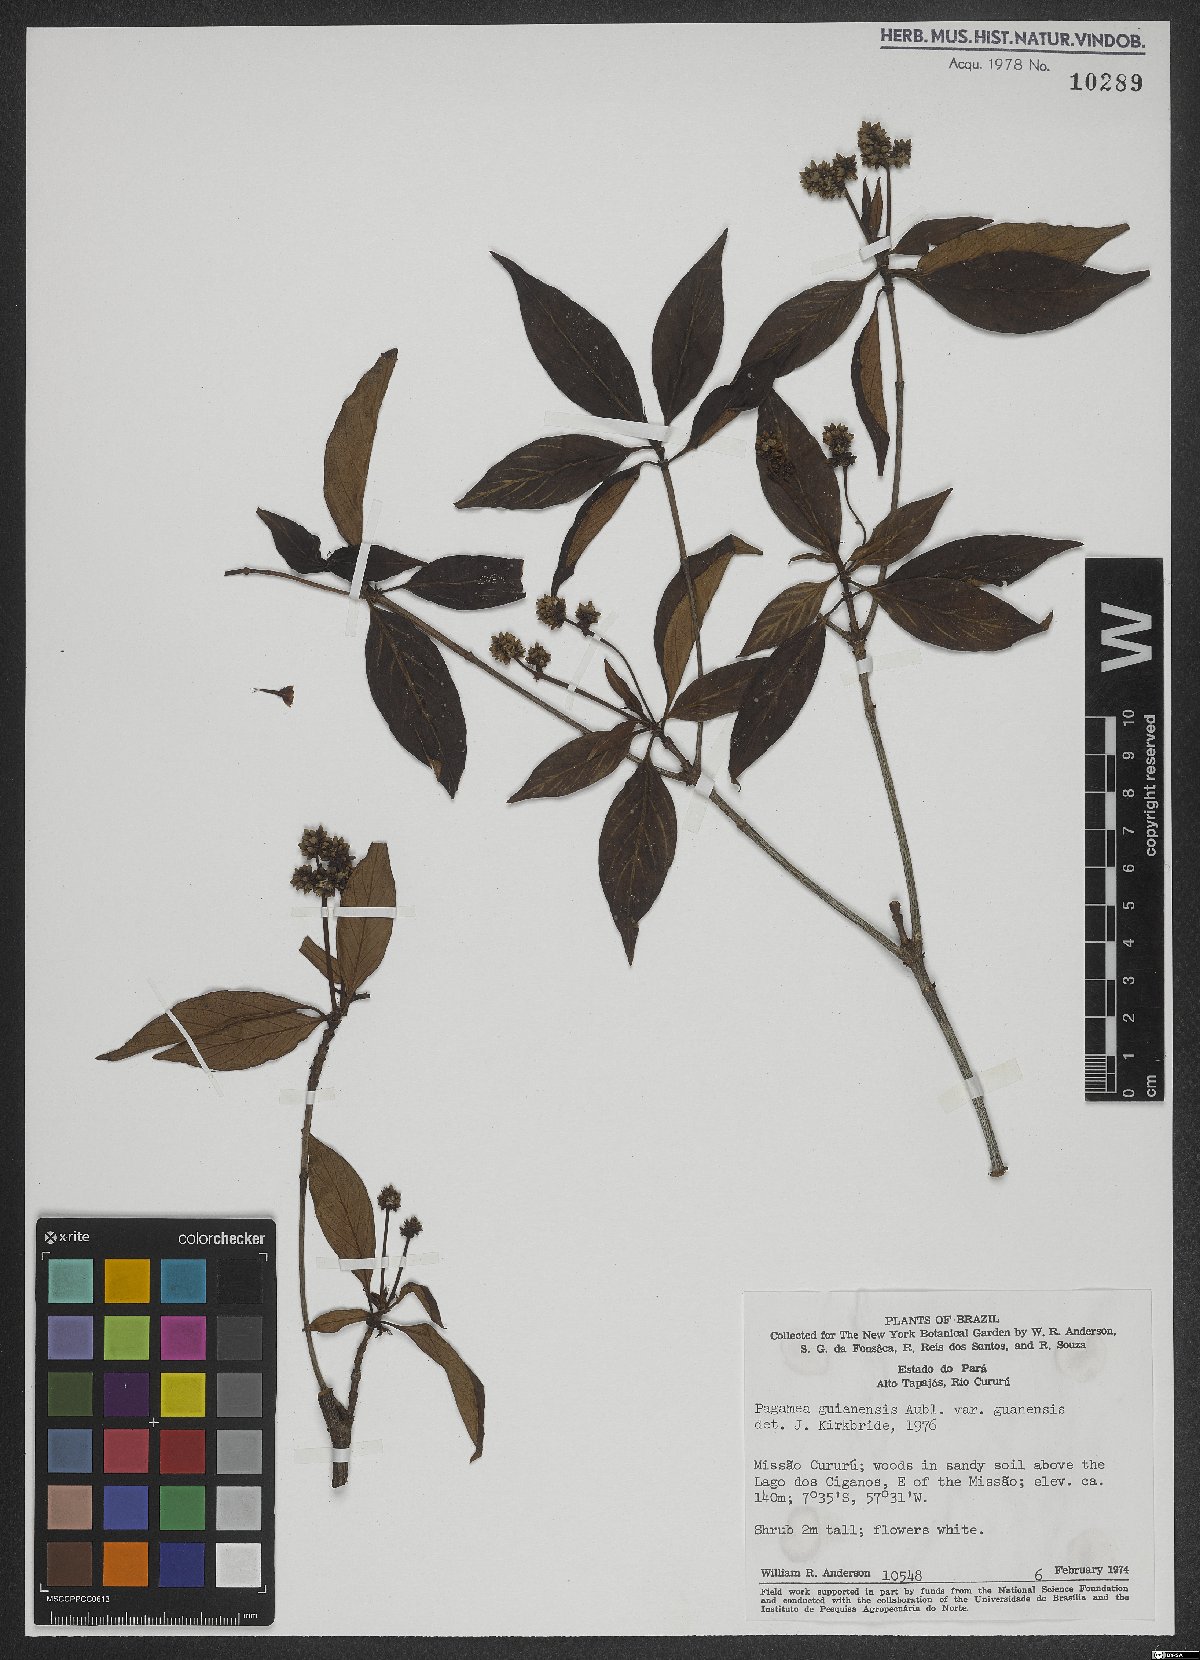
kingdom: Plantae
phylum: Tracheophyta
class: Magnoliopsida
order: Gentianales
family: Rubiaceae
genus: Pagamea
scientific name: Pagamea guianensis
